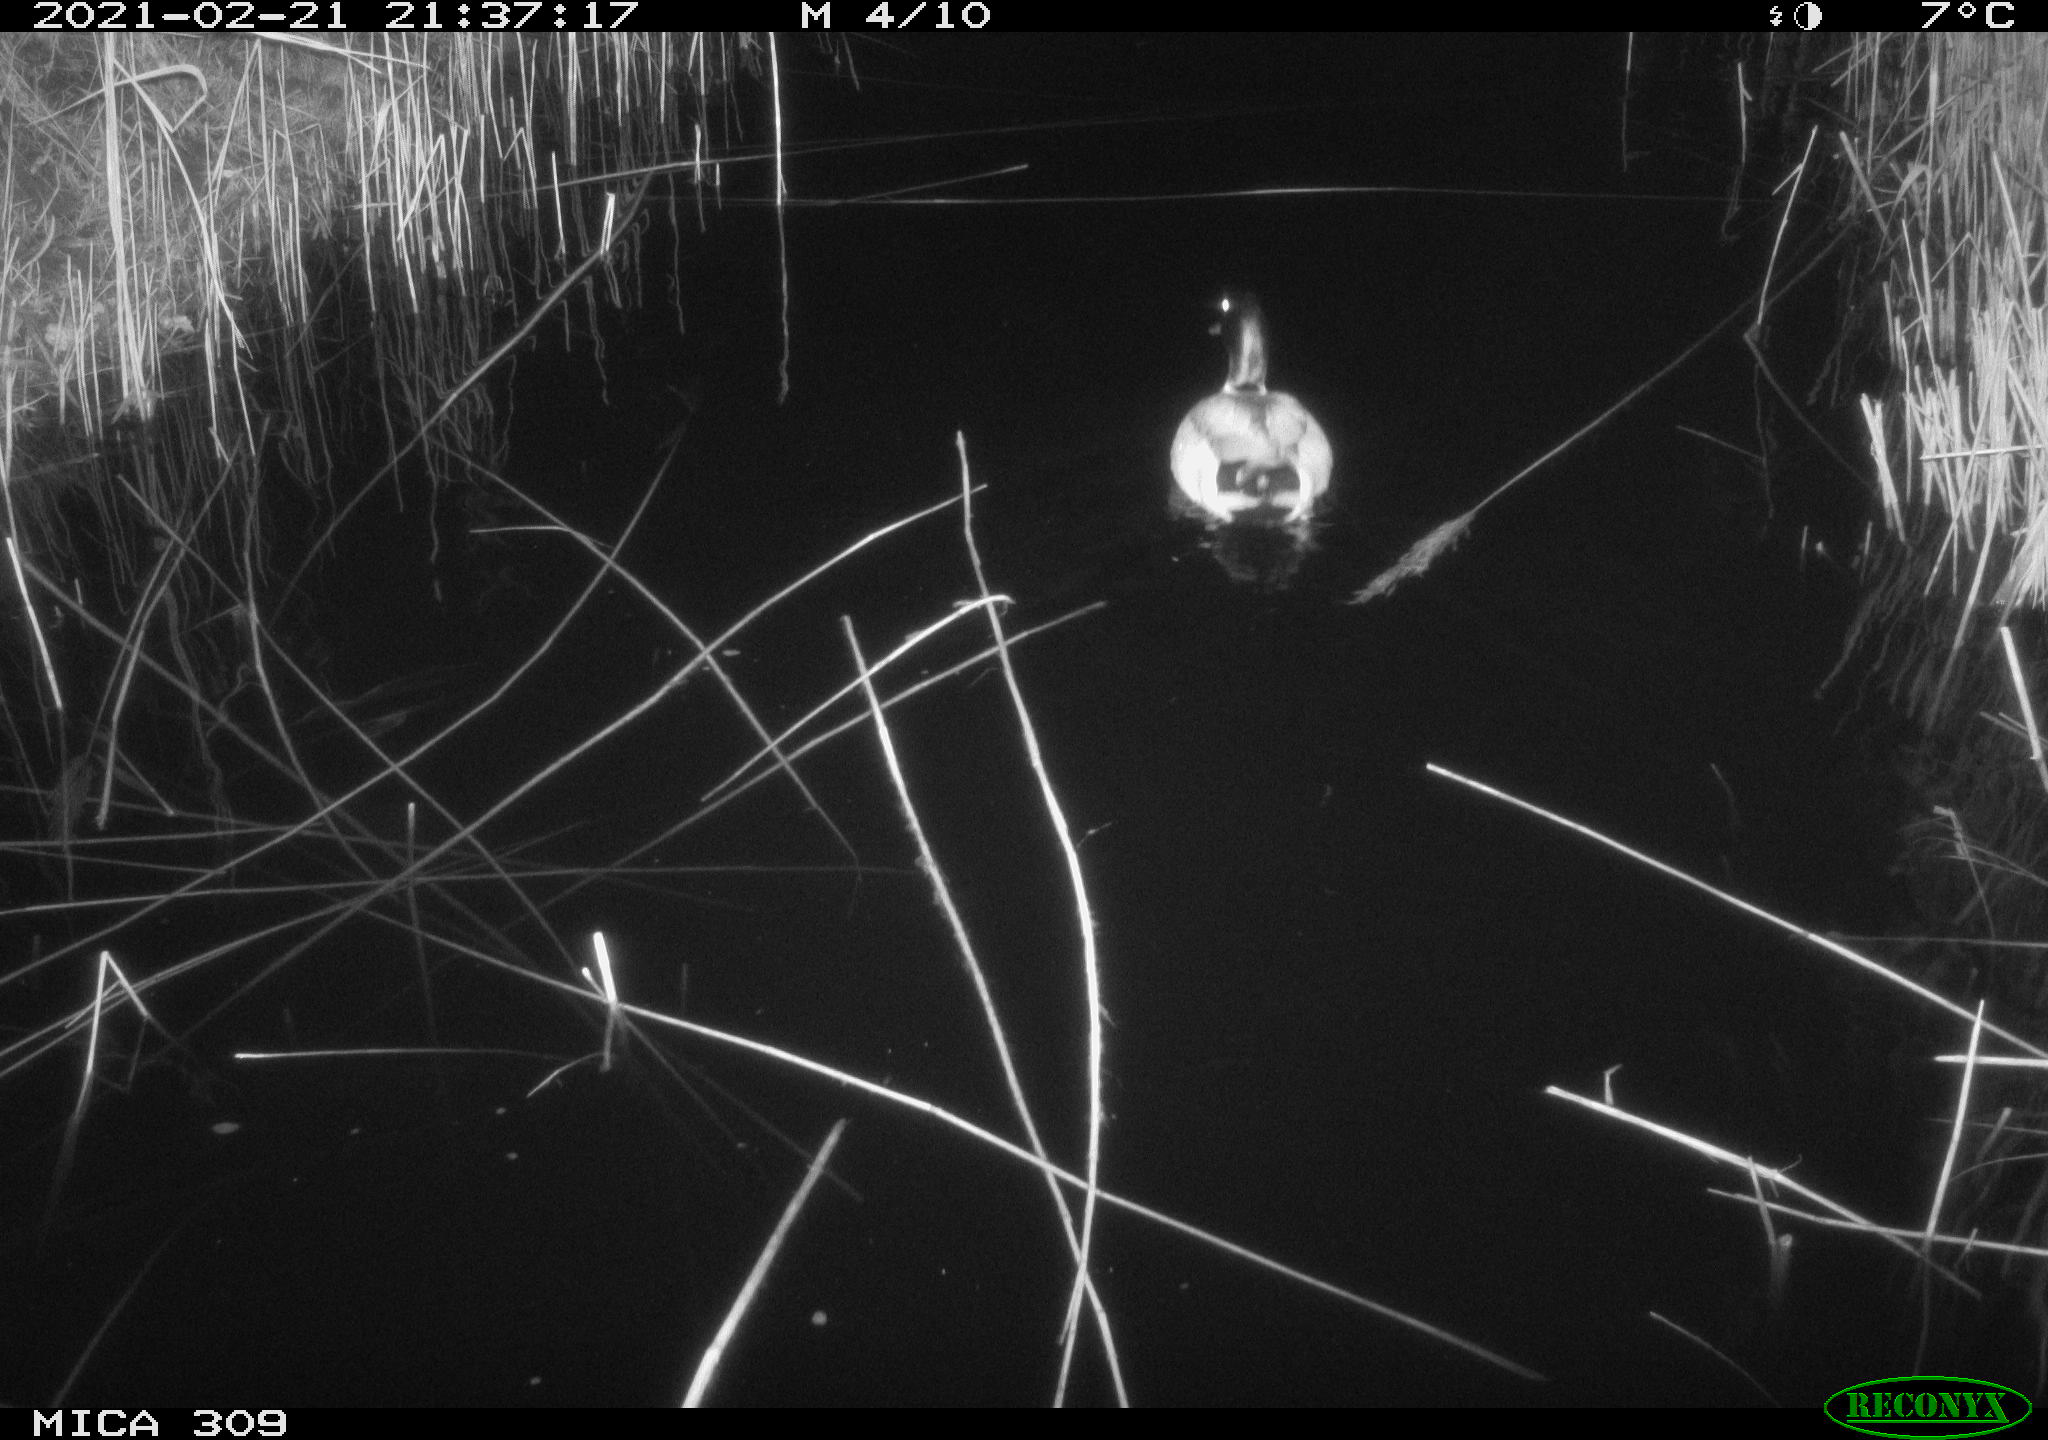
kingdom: Animalia
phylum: Chordata
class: Aves
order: Anseriformes
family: Anatidae
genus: Anas
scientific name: Anas platyrhynchos
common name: Mallard
